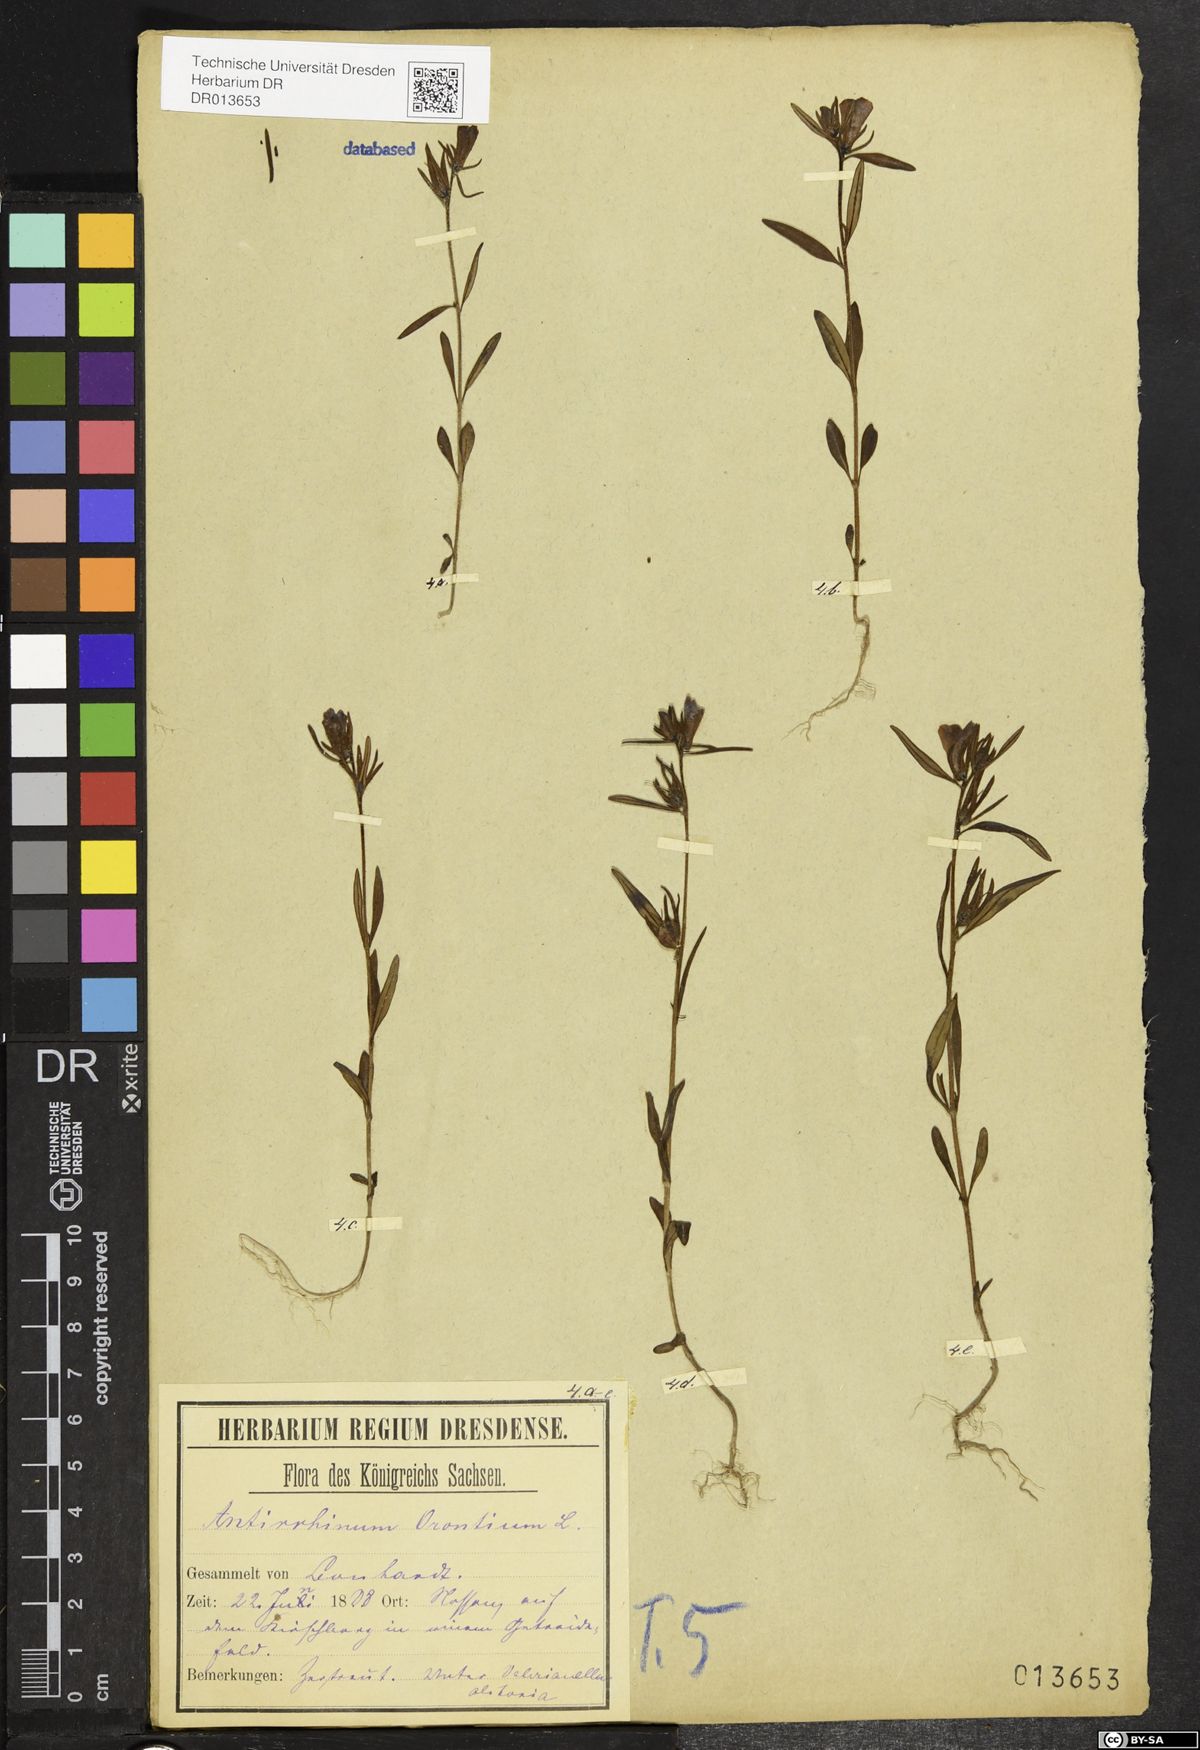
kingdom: Plantae
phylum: Tracheophyta
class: Magnoliopsida
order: Lamiales
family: Plantaginaceae
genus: Misopates
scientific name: Misopates orontium
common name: Weasel's-snout
